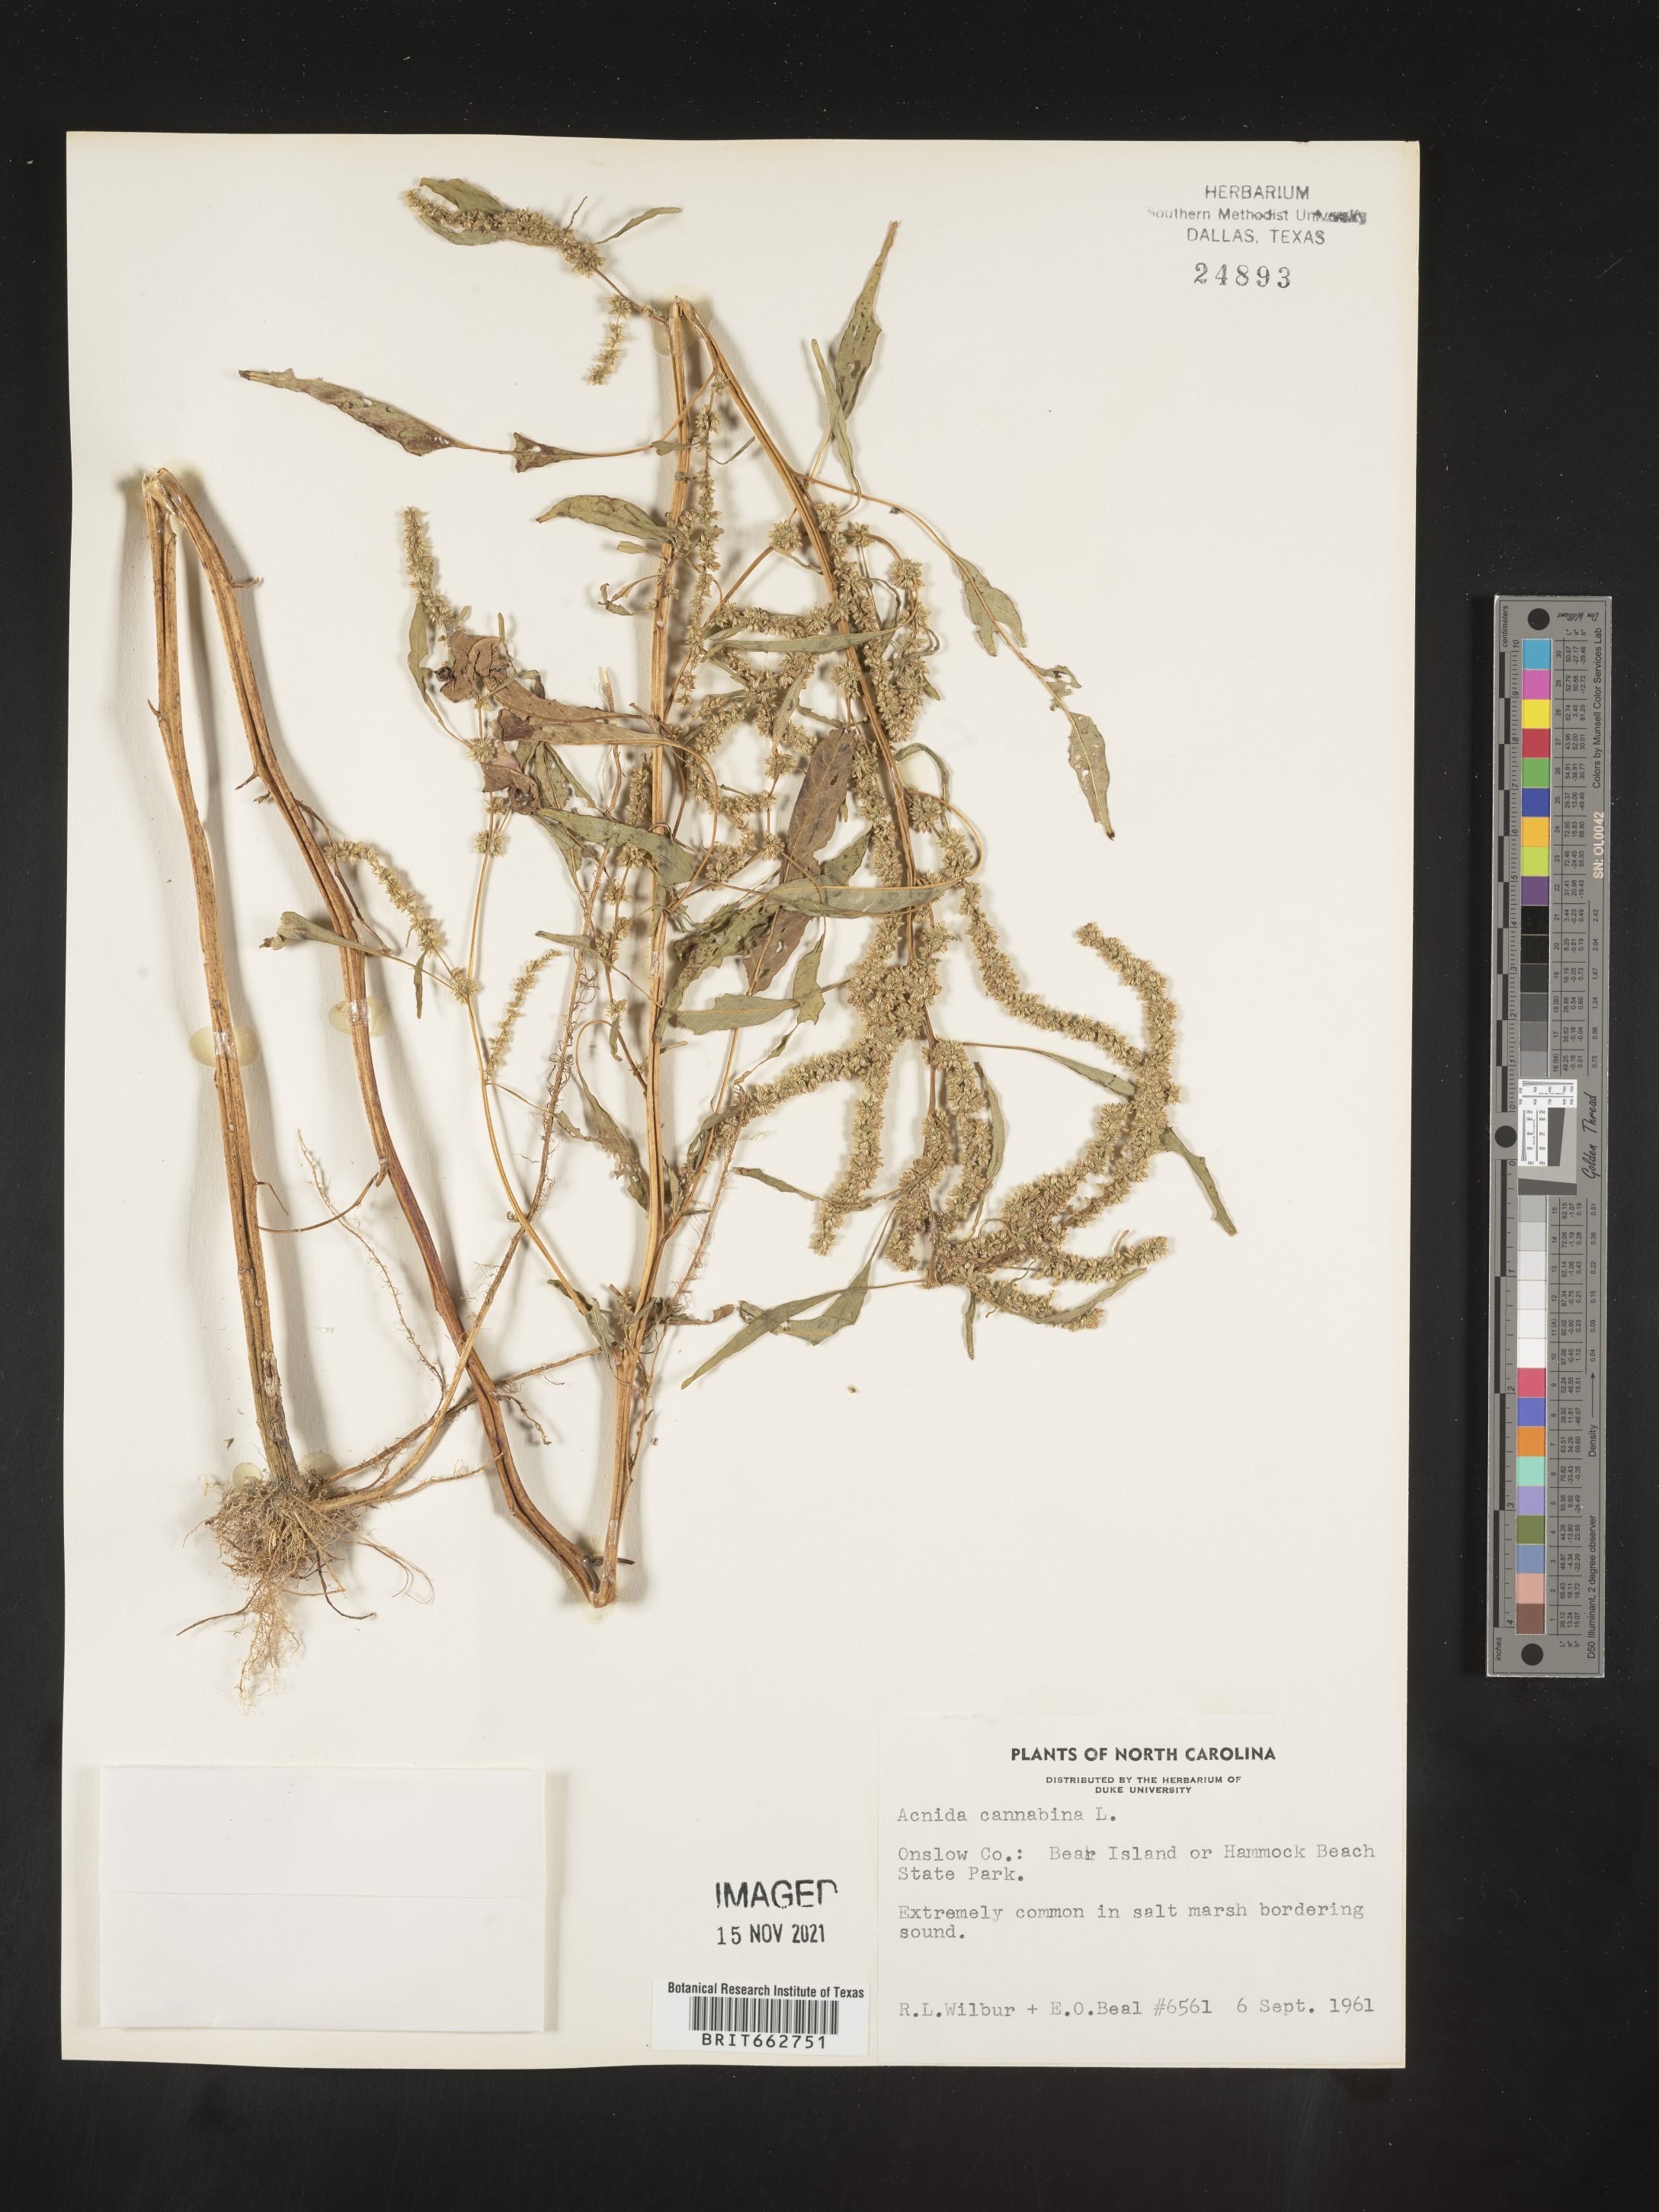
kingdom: Plantae
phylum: Tracheophyta
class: Magnoliopsida
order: Caryophyllales
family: Amaranthaceae
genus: Amaranthus
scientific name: Amaranthus powellii
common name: Powell's amaranth
